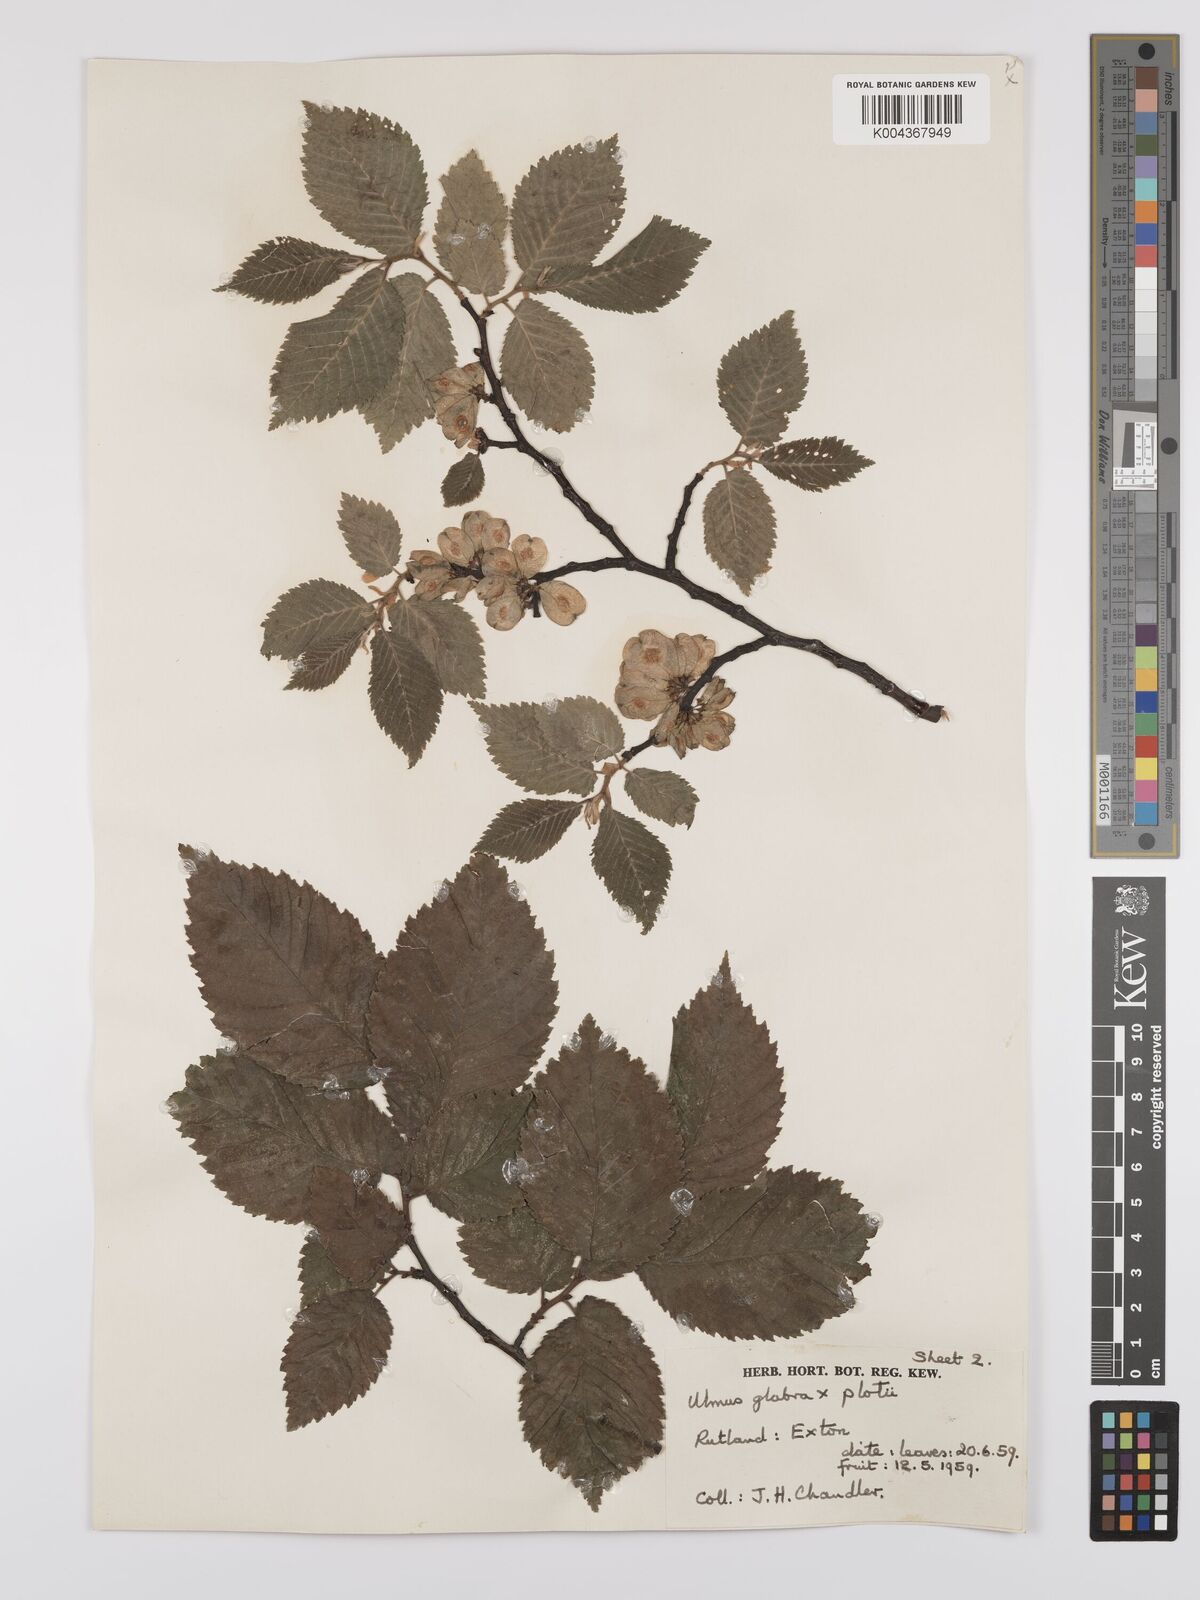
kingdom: Plantae
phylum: Tracheophyta
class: Magnoliopsida
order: Rosales
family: Ulmaceae
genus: Ulmus
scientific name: Ulmus glabra
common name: Wych elm
